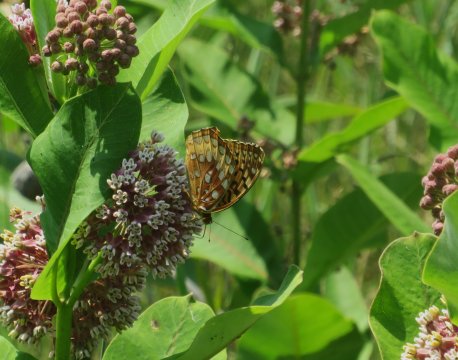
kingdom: Animalia
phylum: Arthropoda
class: Insecta
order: Lepidoptera
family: Nymphalidae
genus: Speyeria
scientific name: Speyeria cybele
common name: Great Spangled Fritillary
